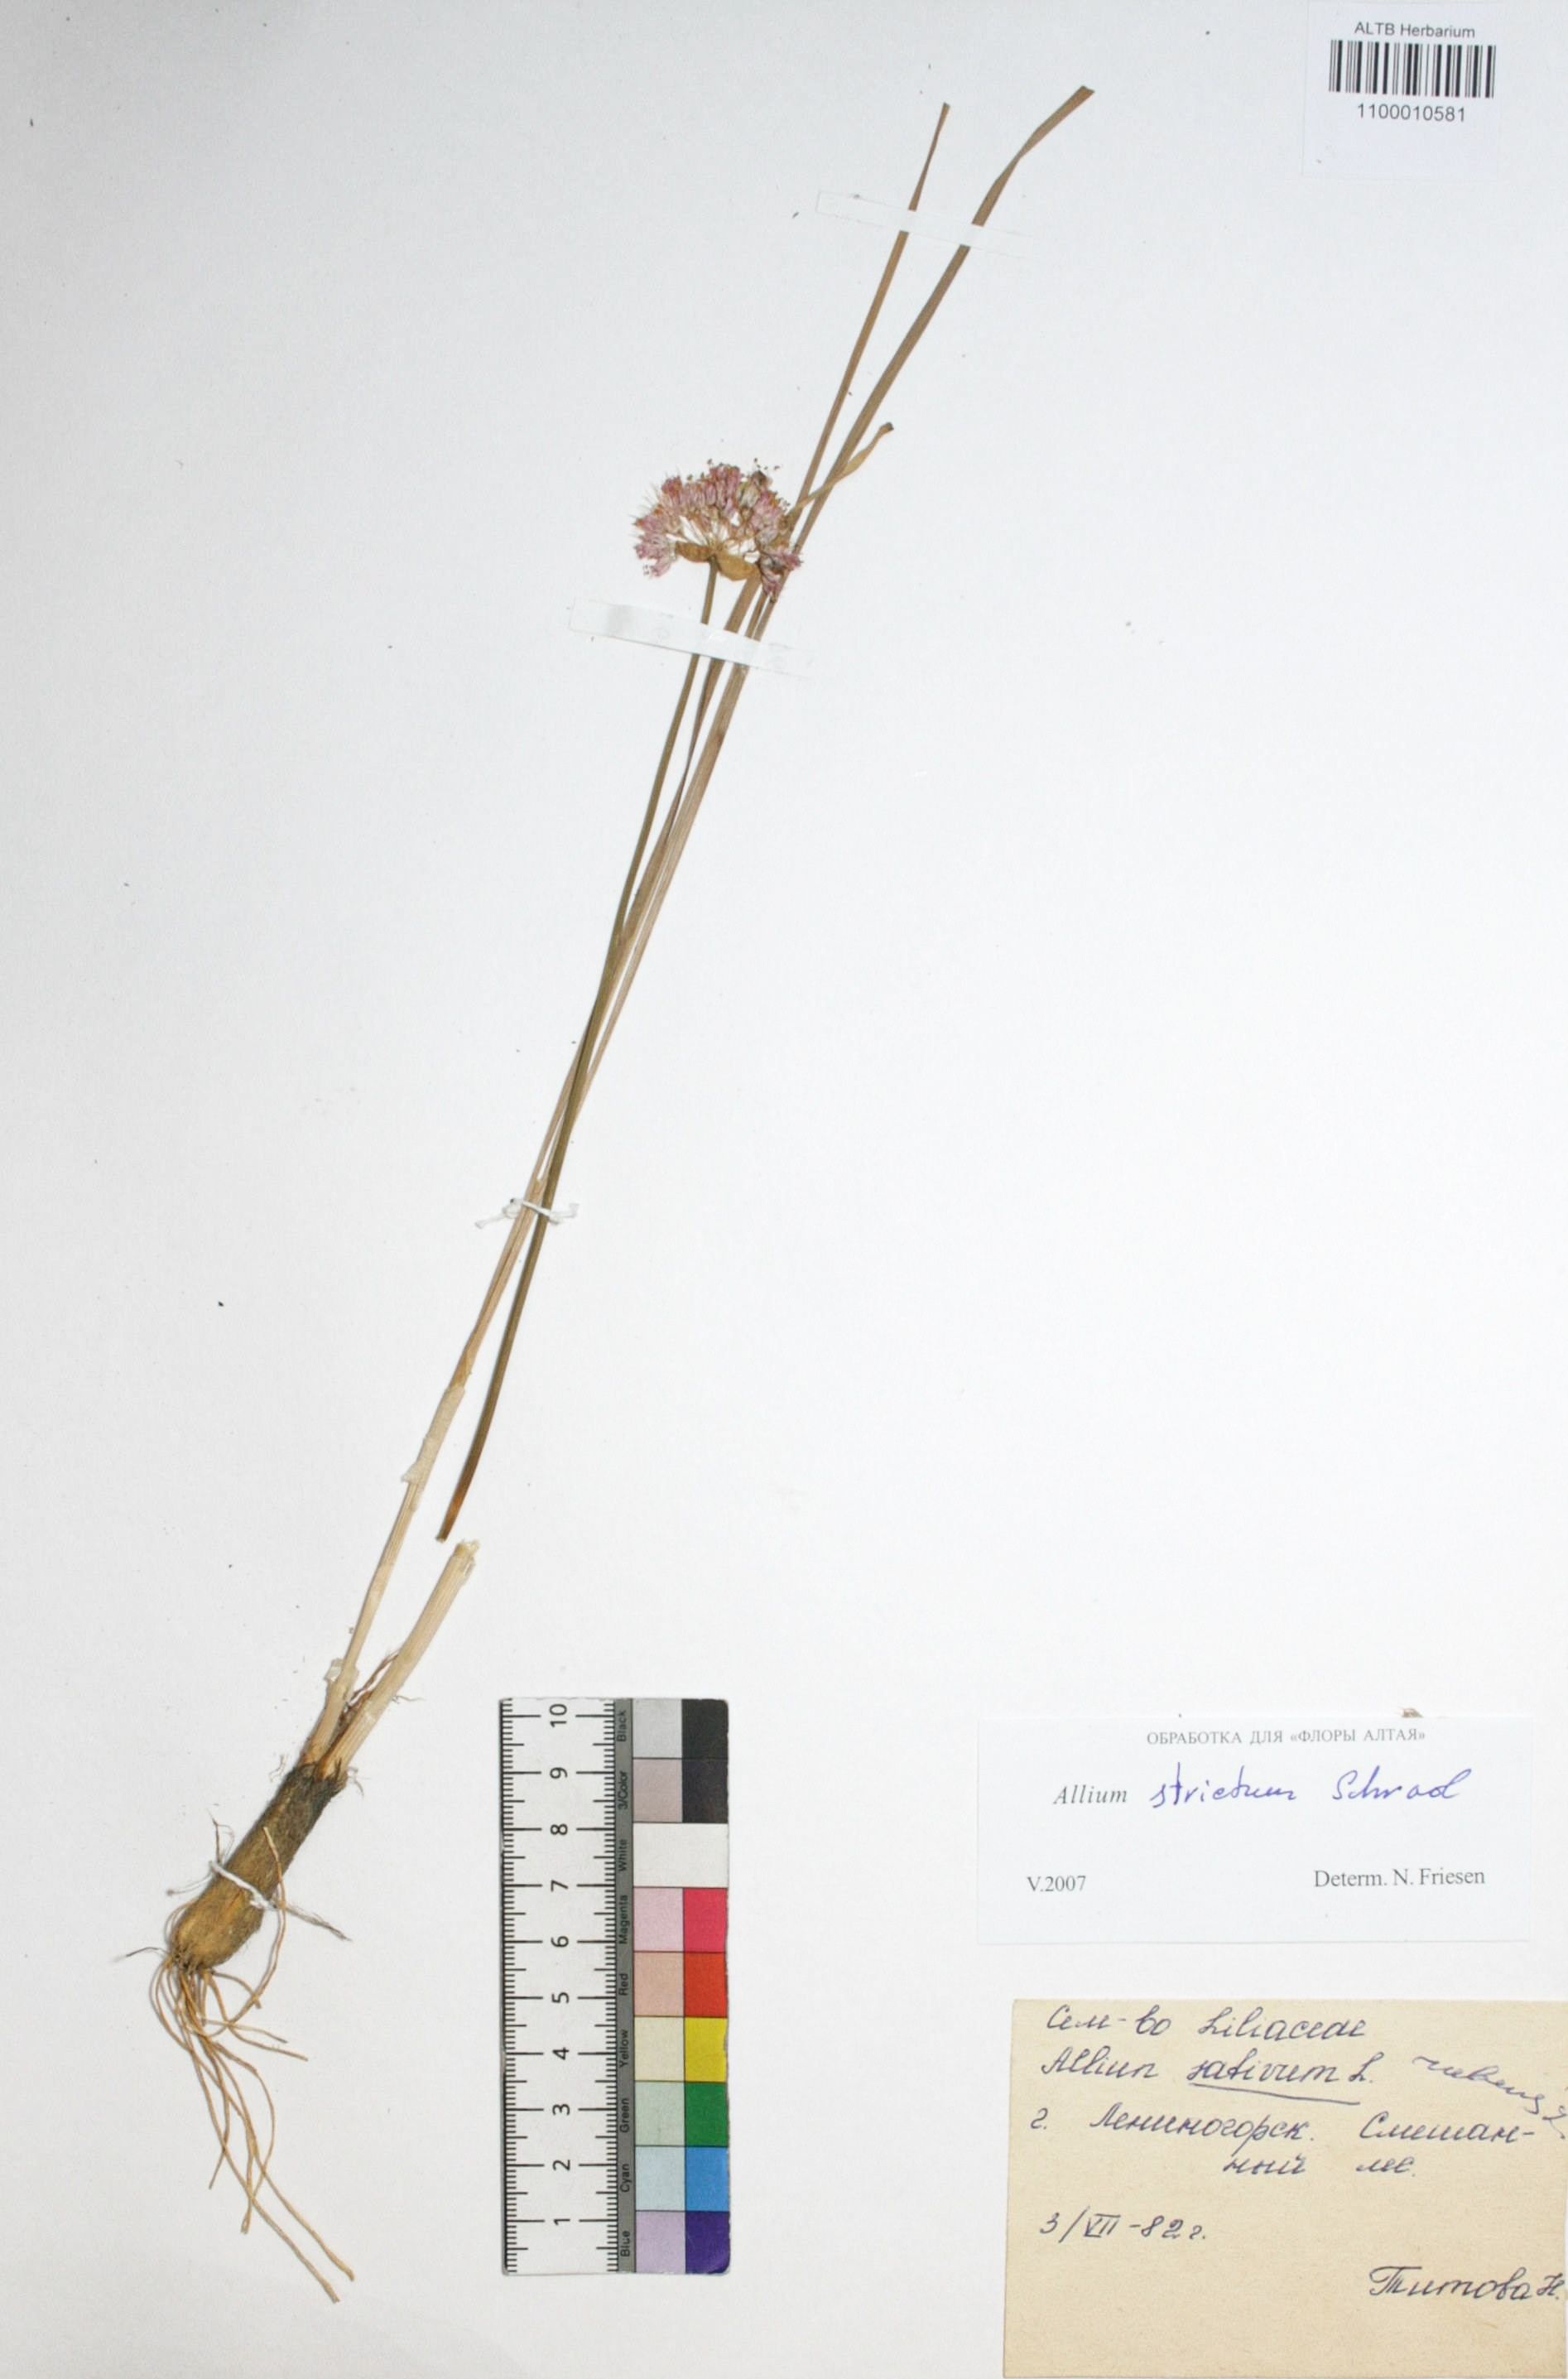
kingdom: Plantae
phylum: Tracheophyta
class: Liliopsida
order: Asparagales
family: Amaryllidaceae
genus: Allium
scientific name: Allium strictum
